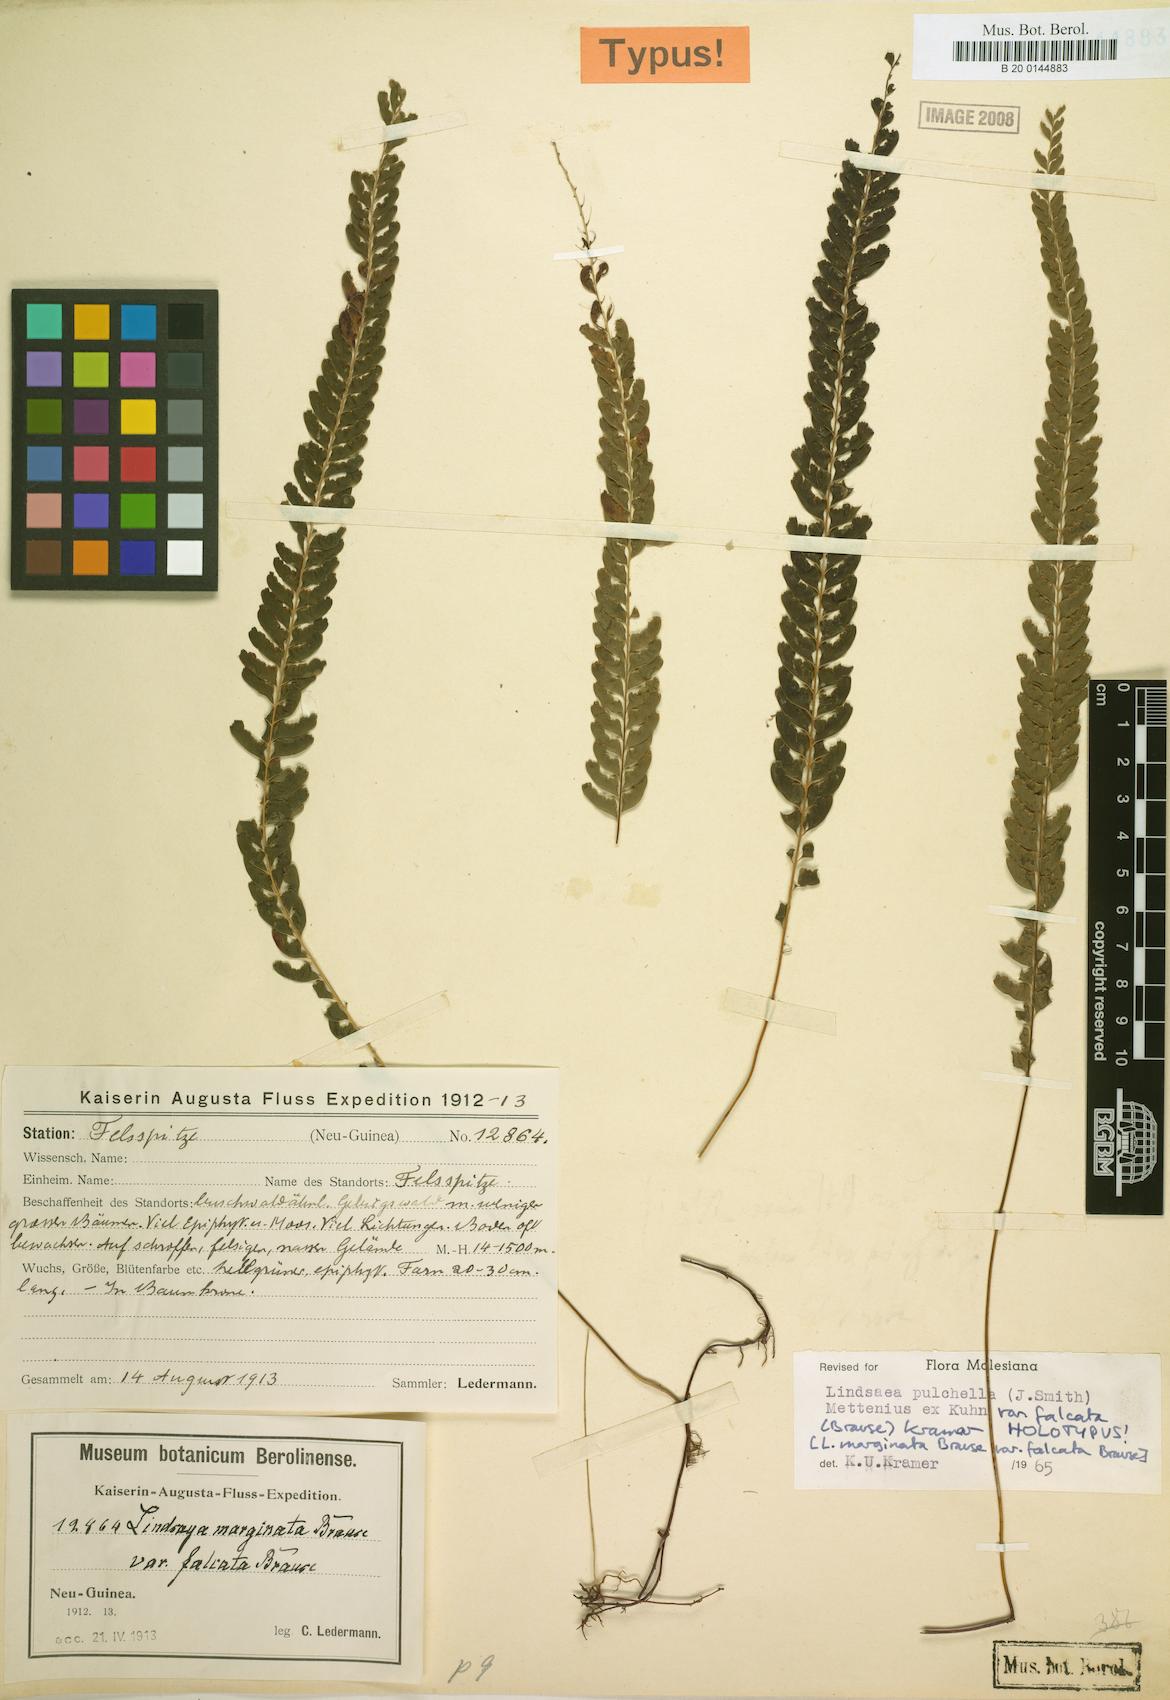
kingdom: Plantae
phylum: Tracheophyta
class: Polypodiopsida
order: Polypodiales
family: Lindsaeaceae
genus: Lindsaea
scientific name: Lindsaea pulchella
